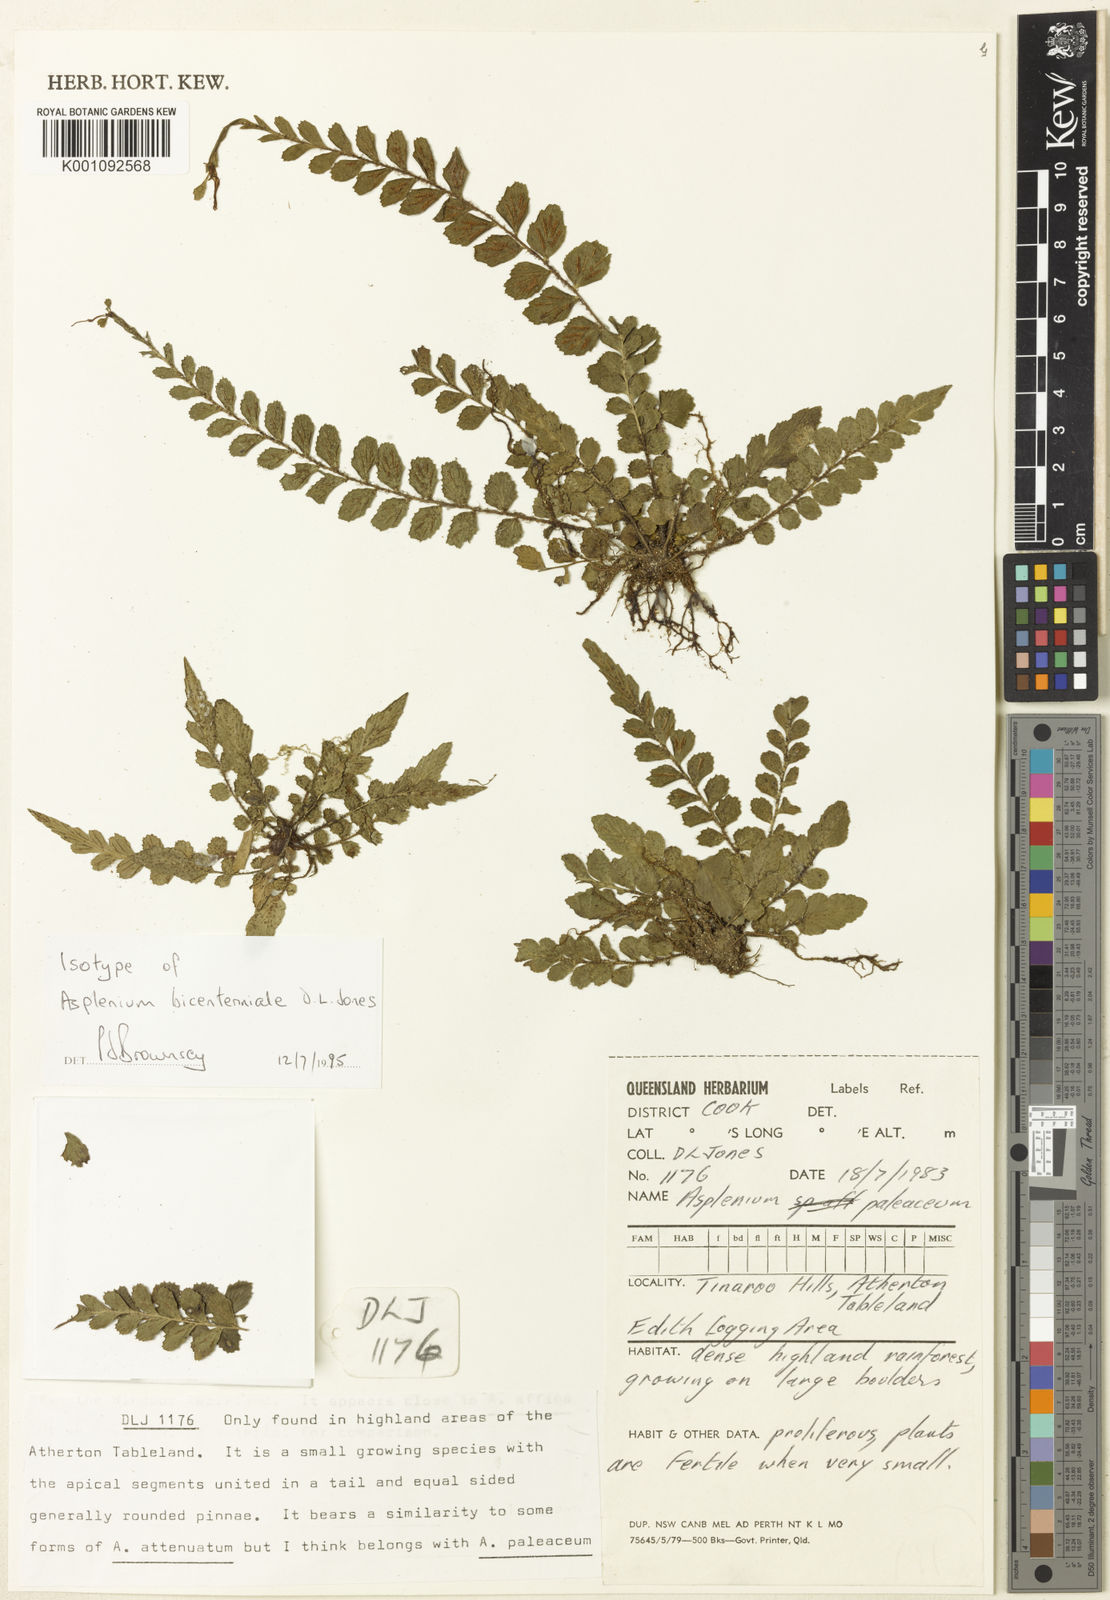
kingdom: Plantae
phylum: Tracheophyta
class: Polypodiopsida
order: Polypodiales
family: Aspleniaceae
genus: Asplenium
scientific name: Asplenium bicentenniale
